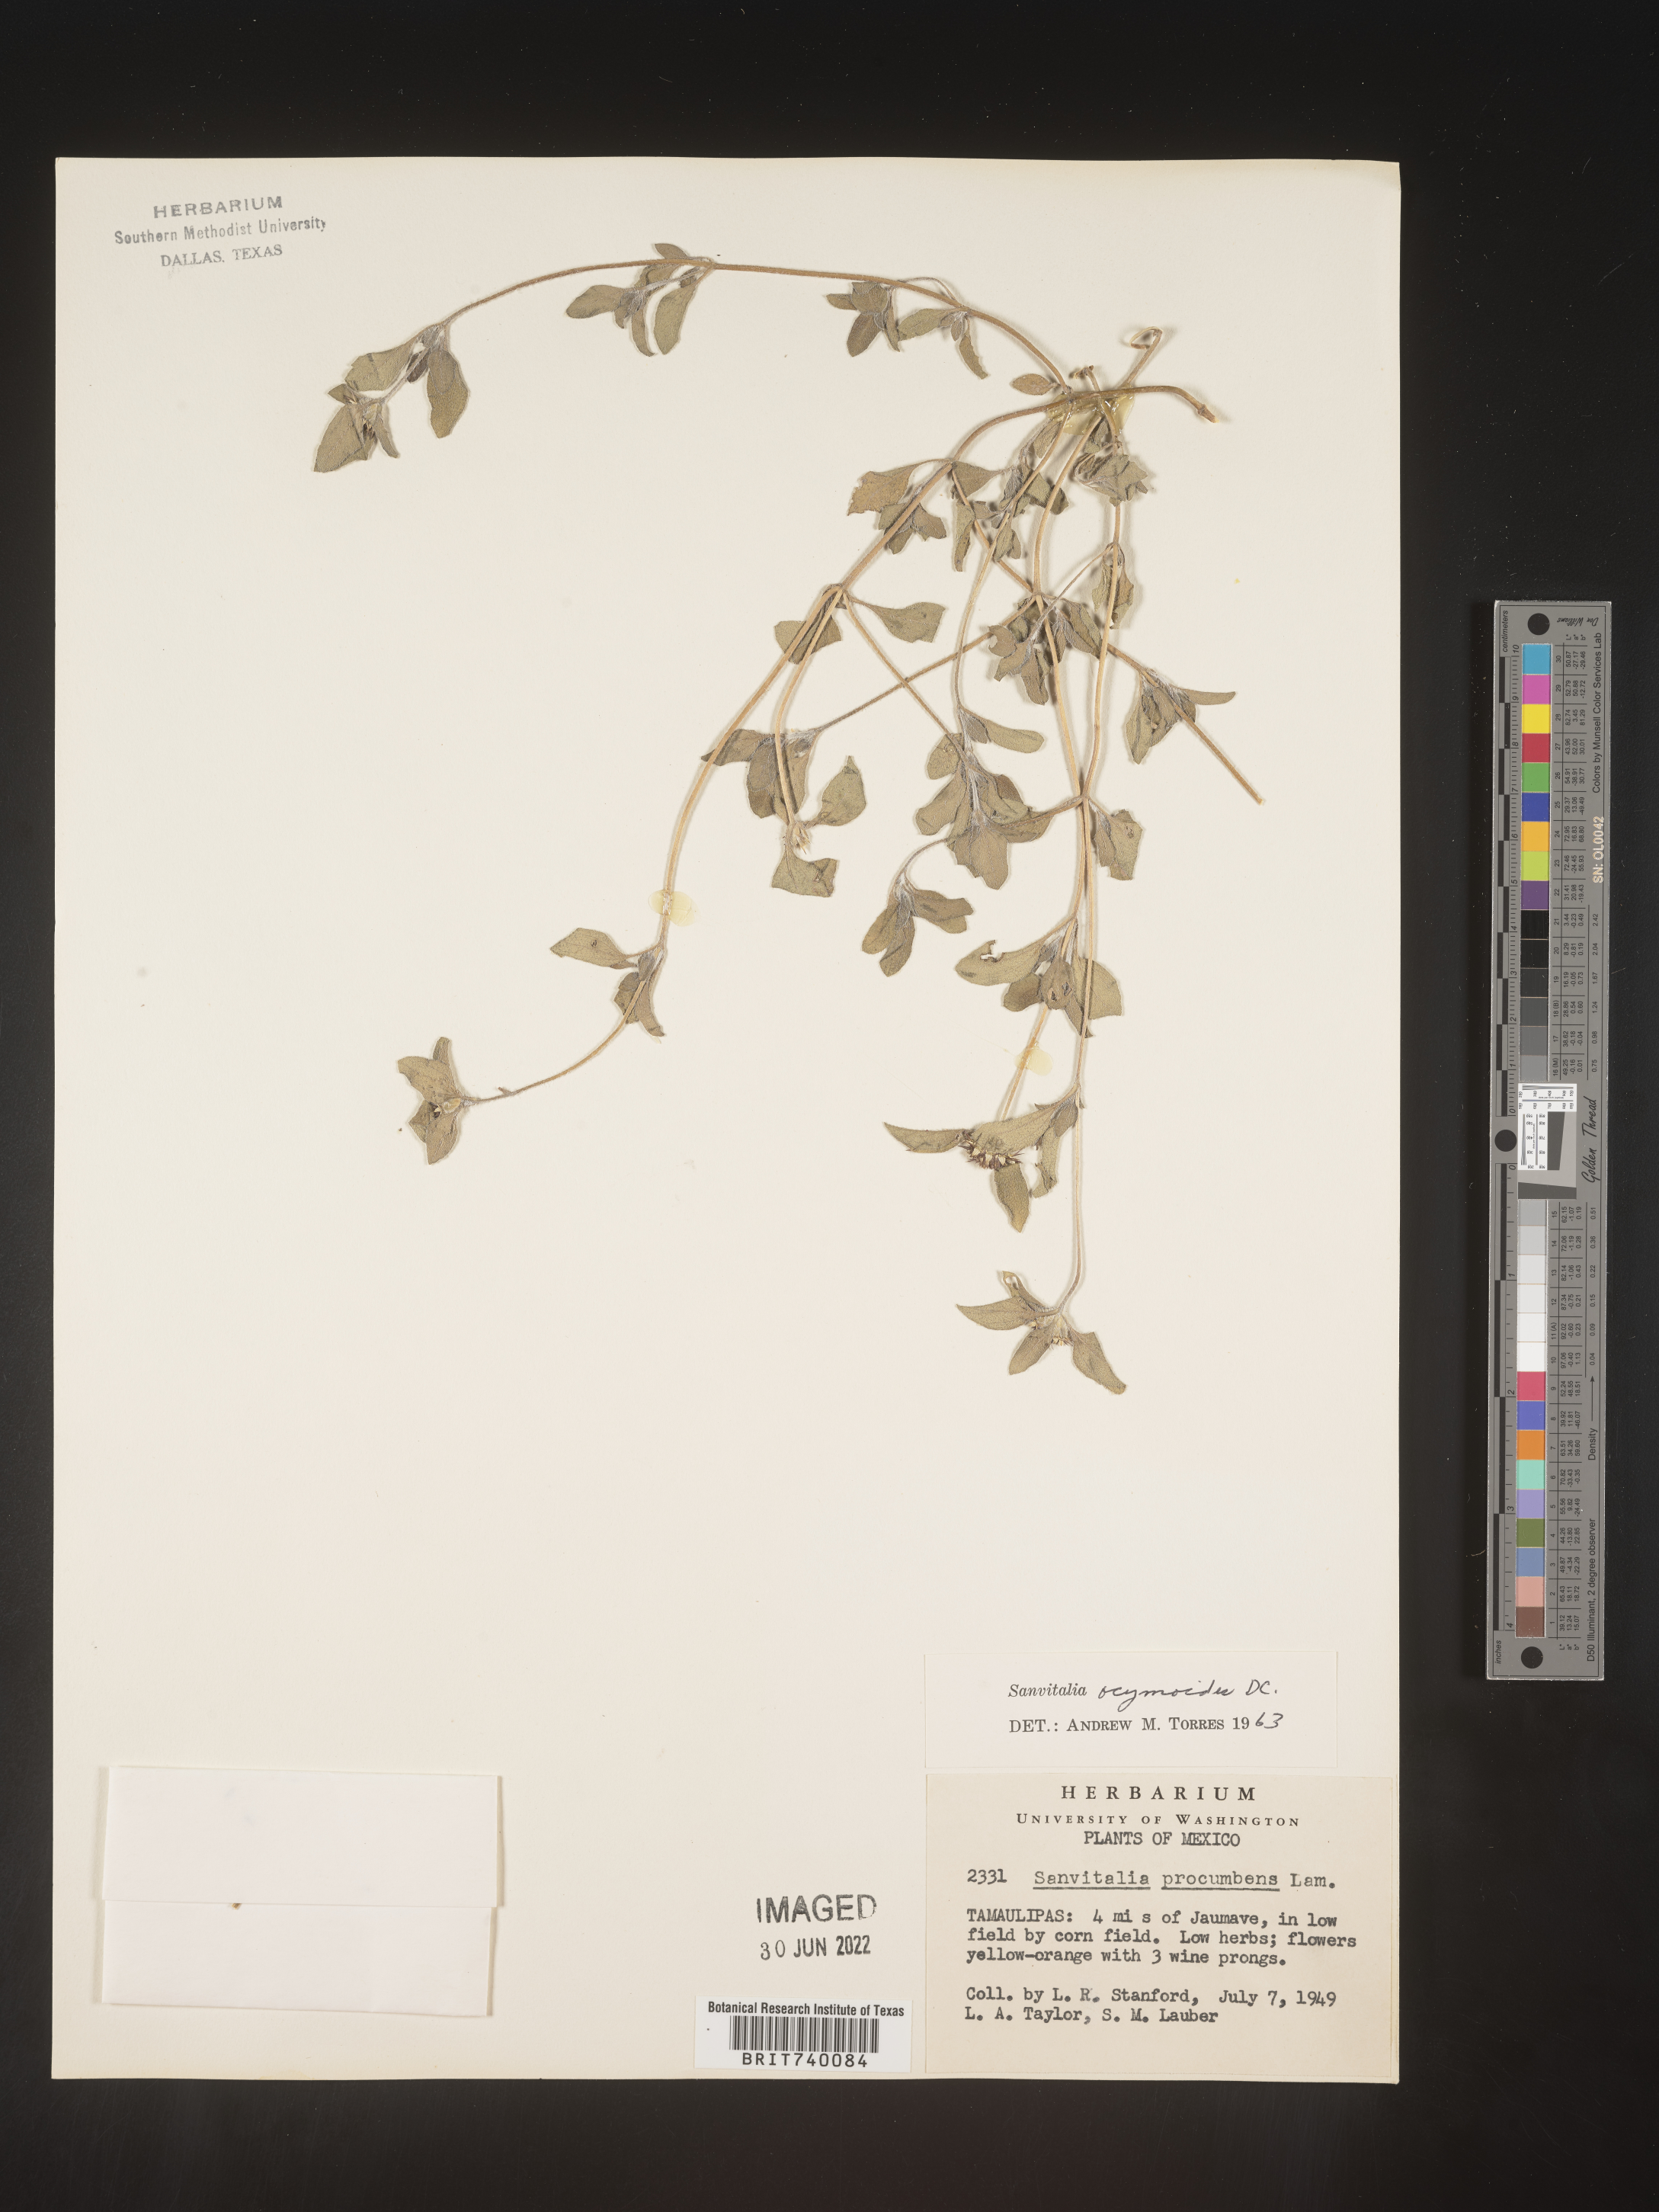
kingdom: Plantae
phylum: Tracheophyta
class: Magnoliopsida
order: Asterales
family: Asteraceae
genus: Sanvitalia
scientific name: Sanvitalia
